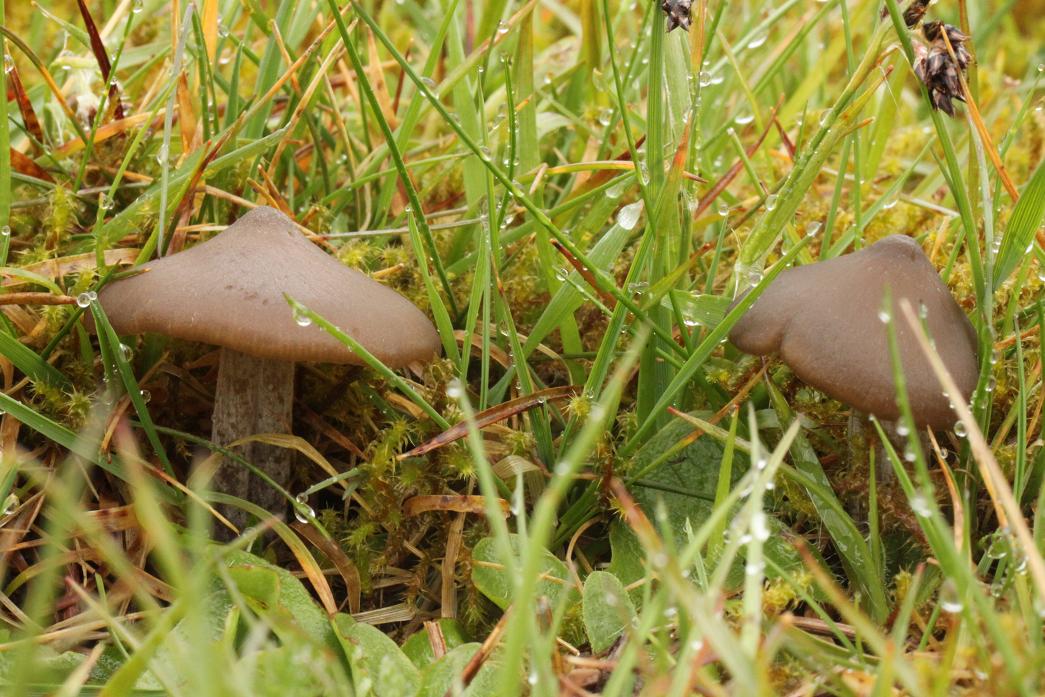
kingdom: Fungi
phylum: Basidiomycota
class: Agaricomycetes
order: Agaricales
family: Entolomataceae
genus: Entoloma
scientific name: Entoloma vernum
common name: vår-rødblad
